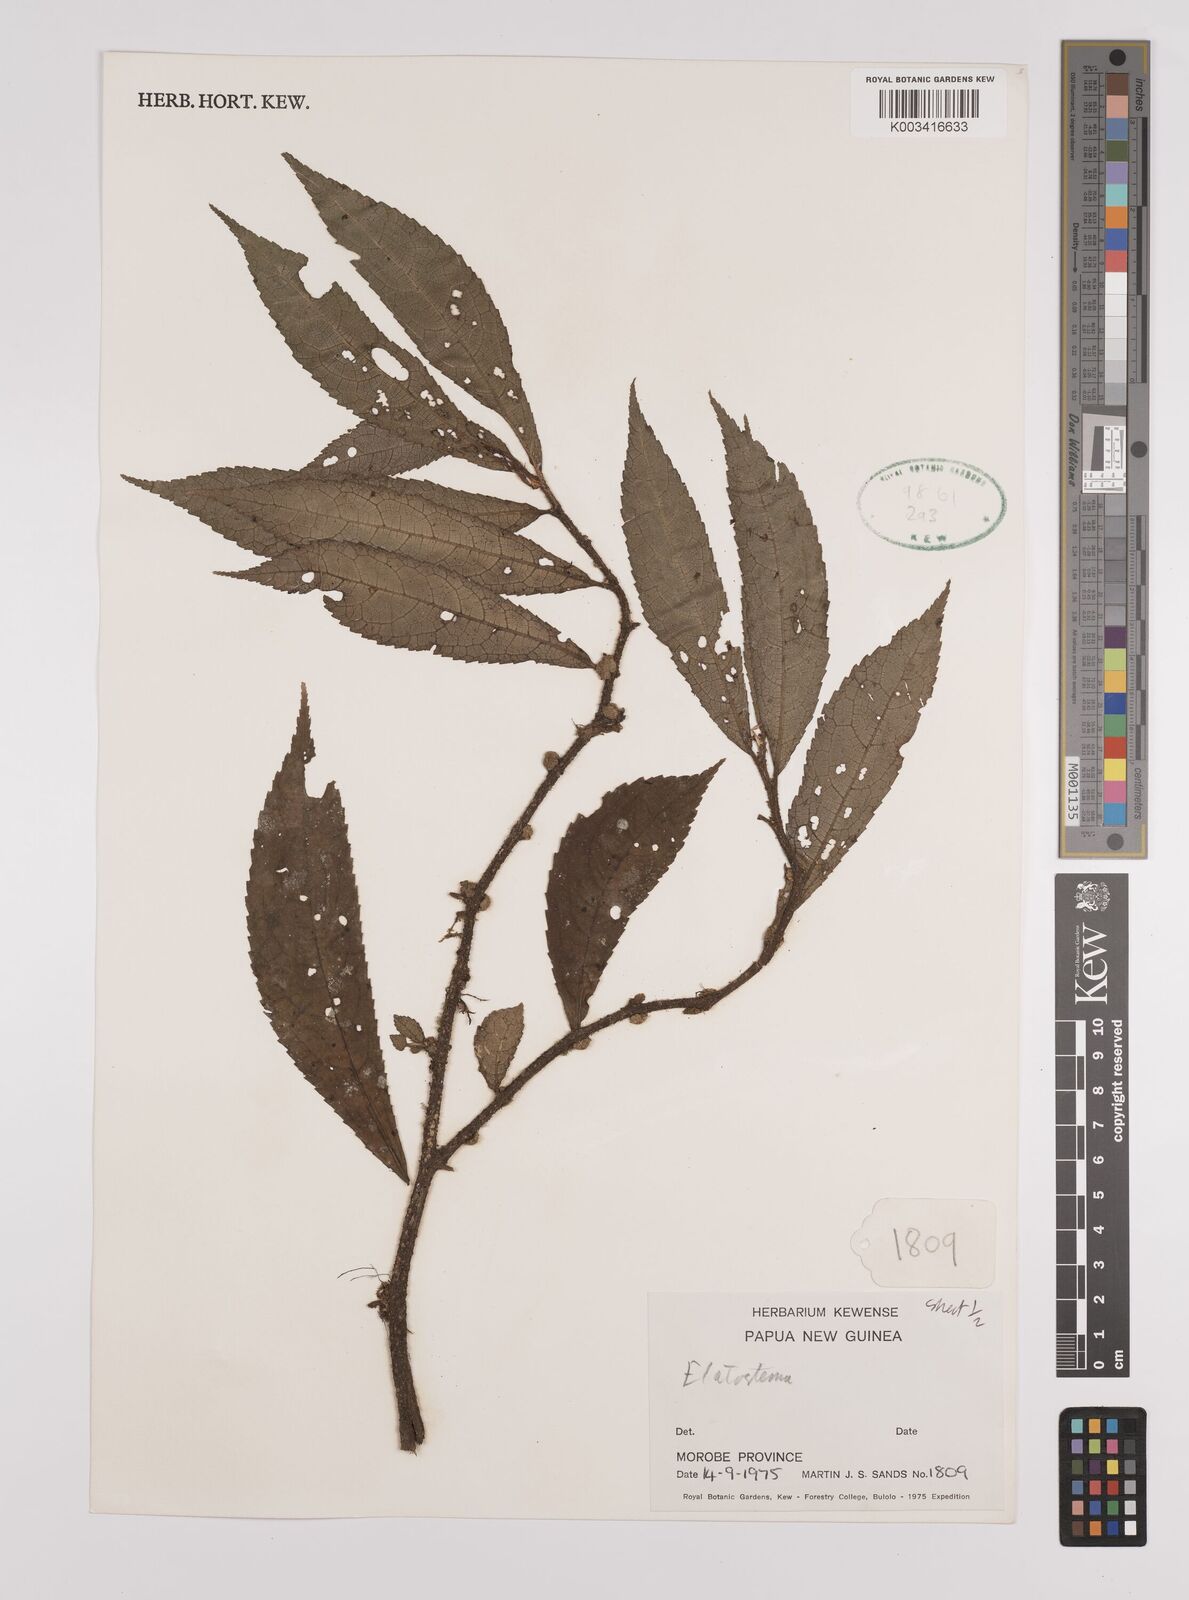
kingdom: Plantae
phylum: Tracheophyta
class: Magnoliopsida
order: Rosales
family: Urticaceae
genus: Elatostema
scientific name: Elatostema
